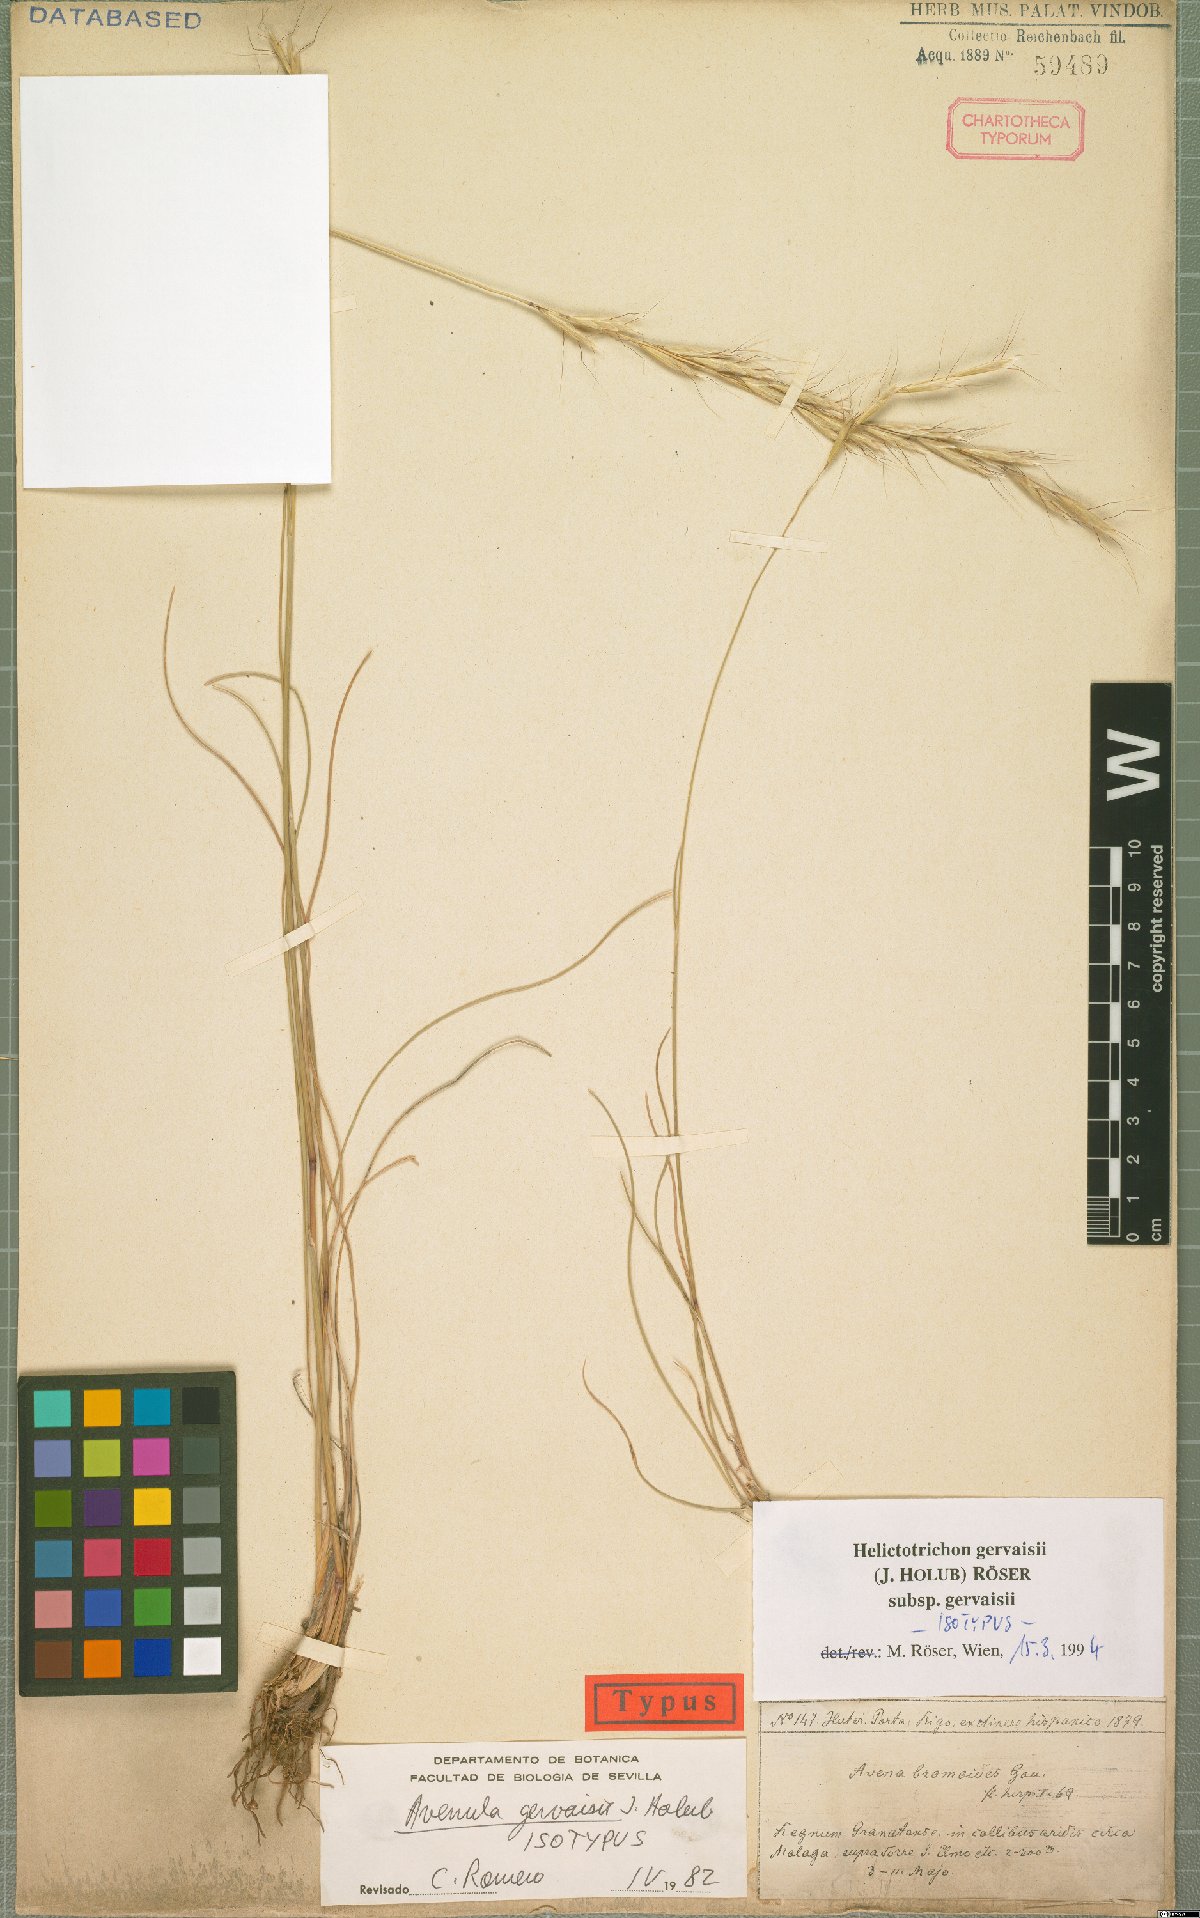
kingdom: Plantae
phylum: Tracheophyta
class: Liliopsida
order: Poales
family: Poaceae
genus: Helictochloa
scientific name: Helictochloa gervaisii
